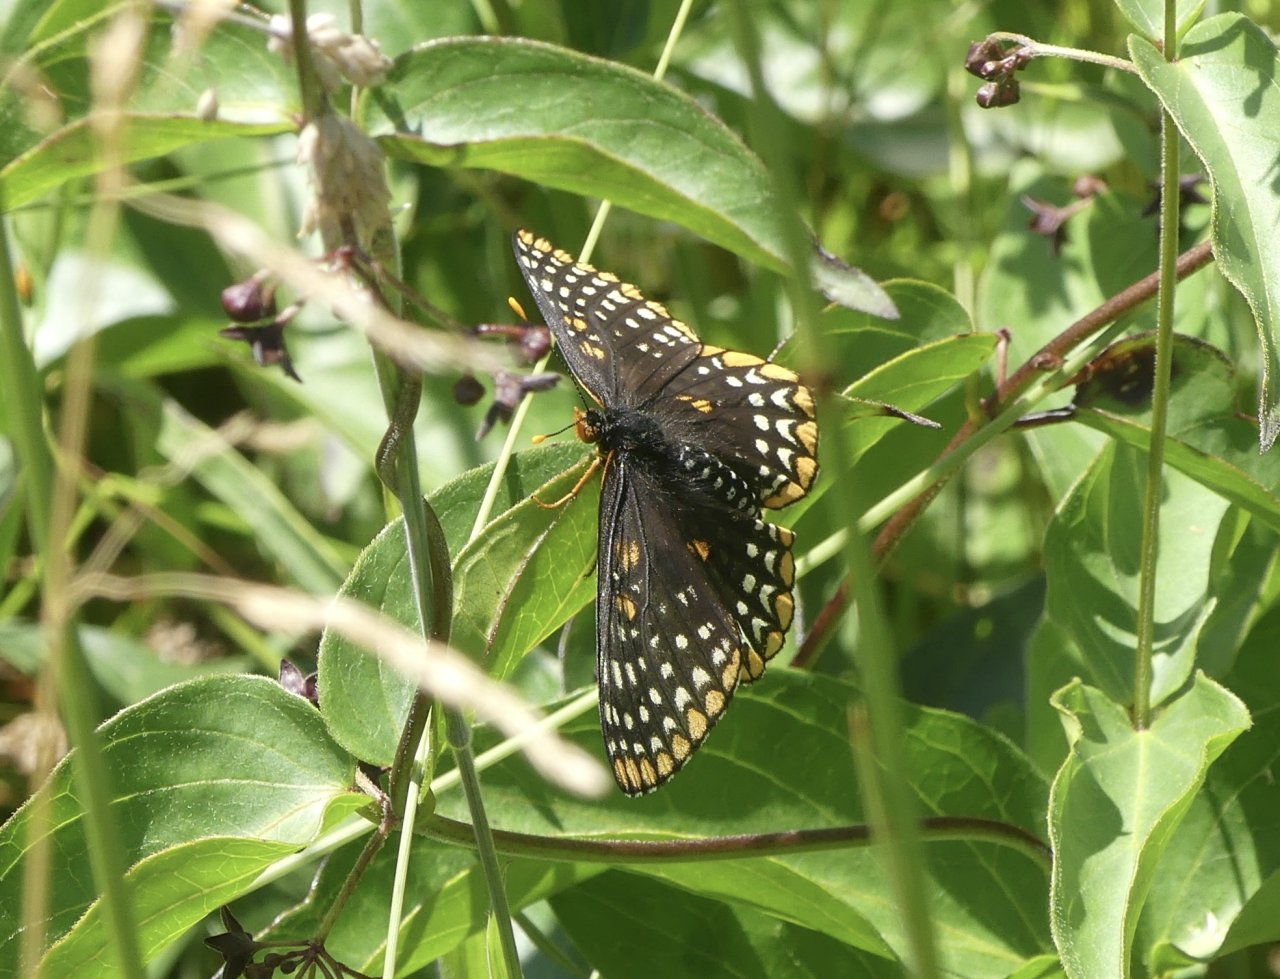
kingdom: Animalia
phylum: Arthropoda
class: Insecta
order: Lepidoptera
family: Nymphalidae
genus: Euphydryas
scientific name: Euphydryas phaeton
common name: Baltimore Checkerspot
